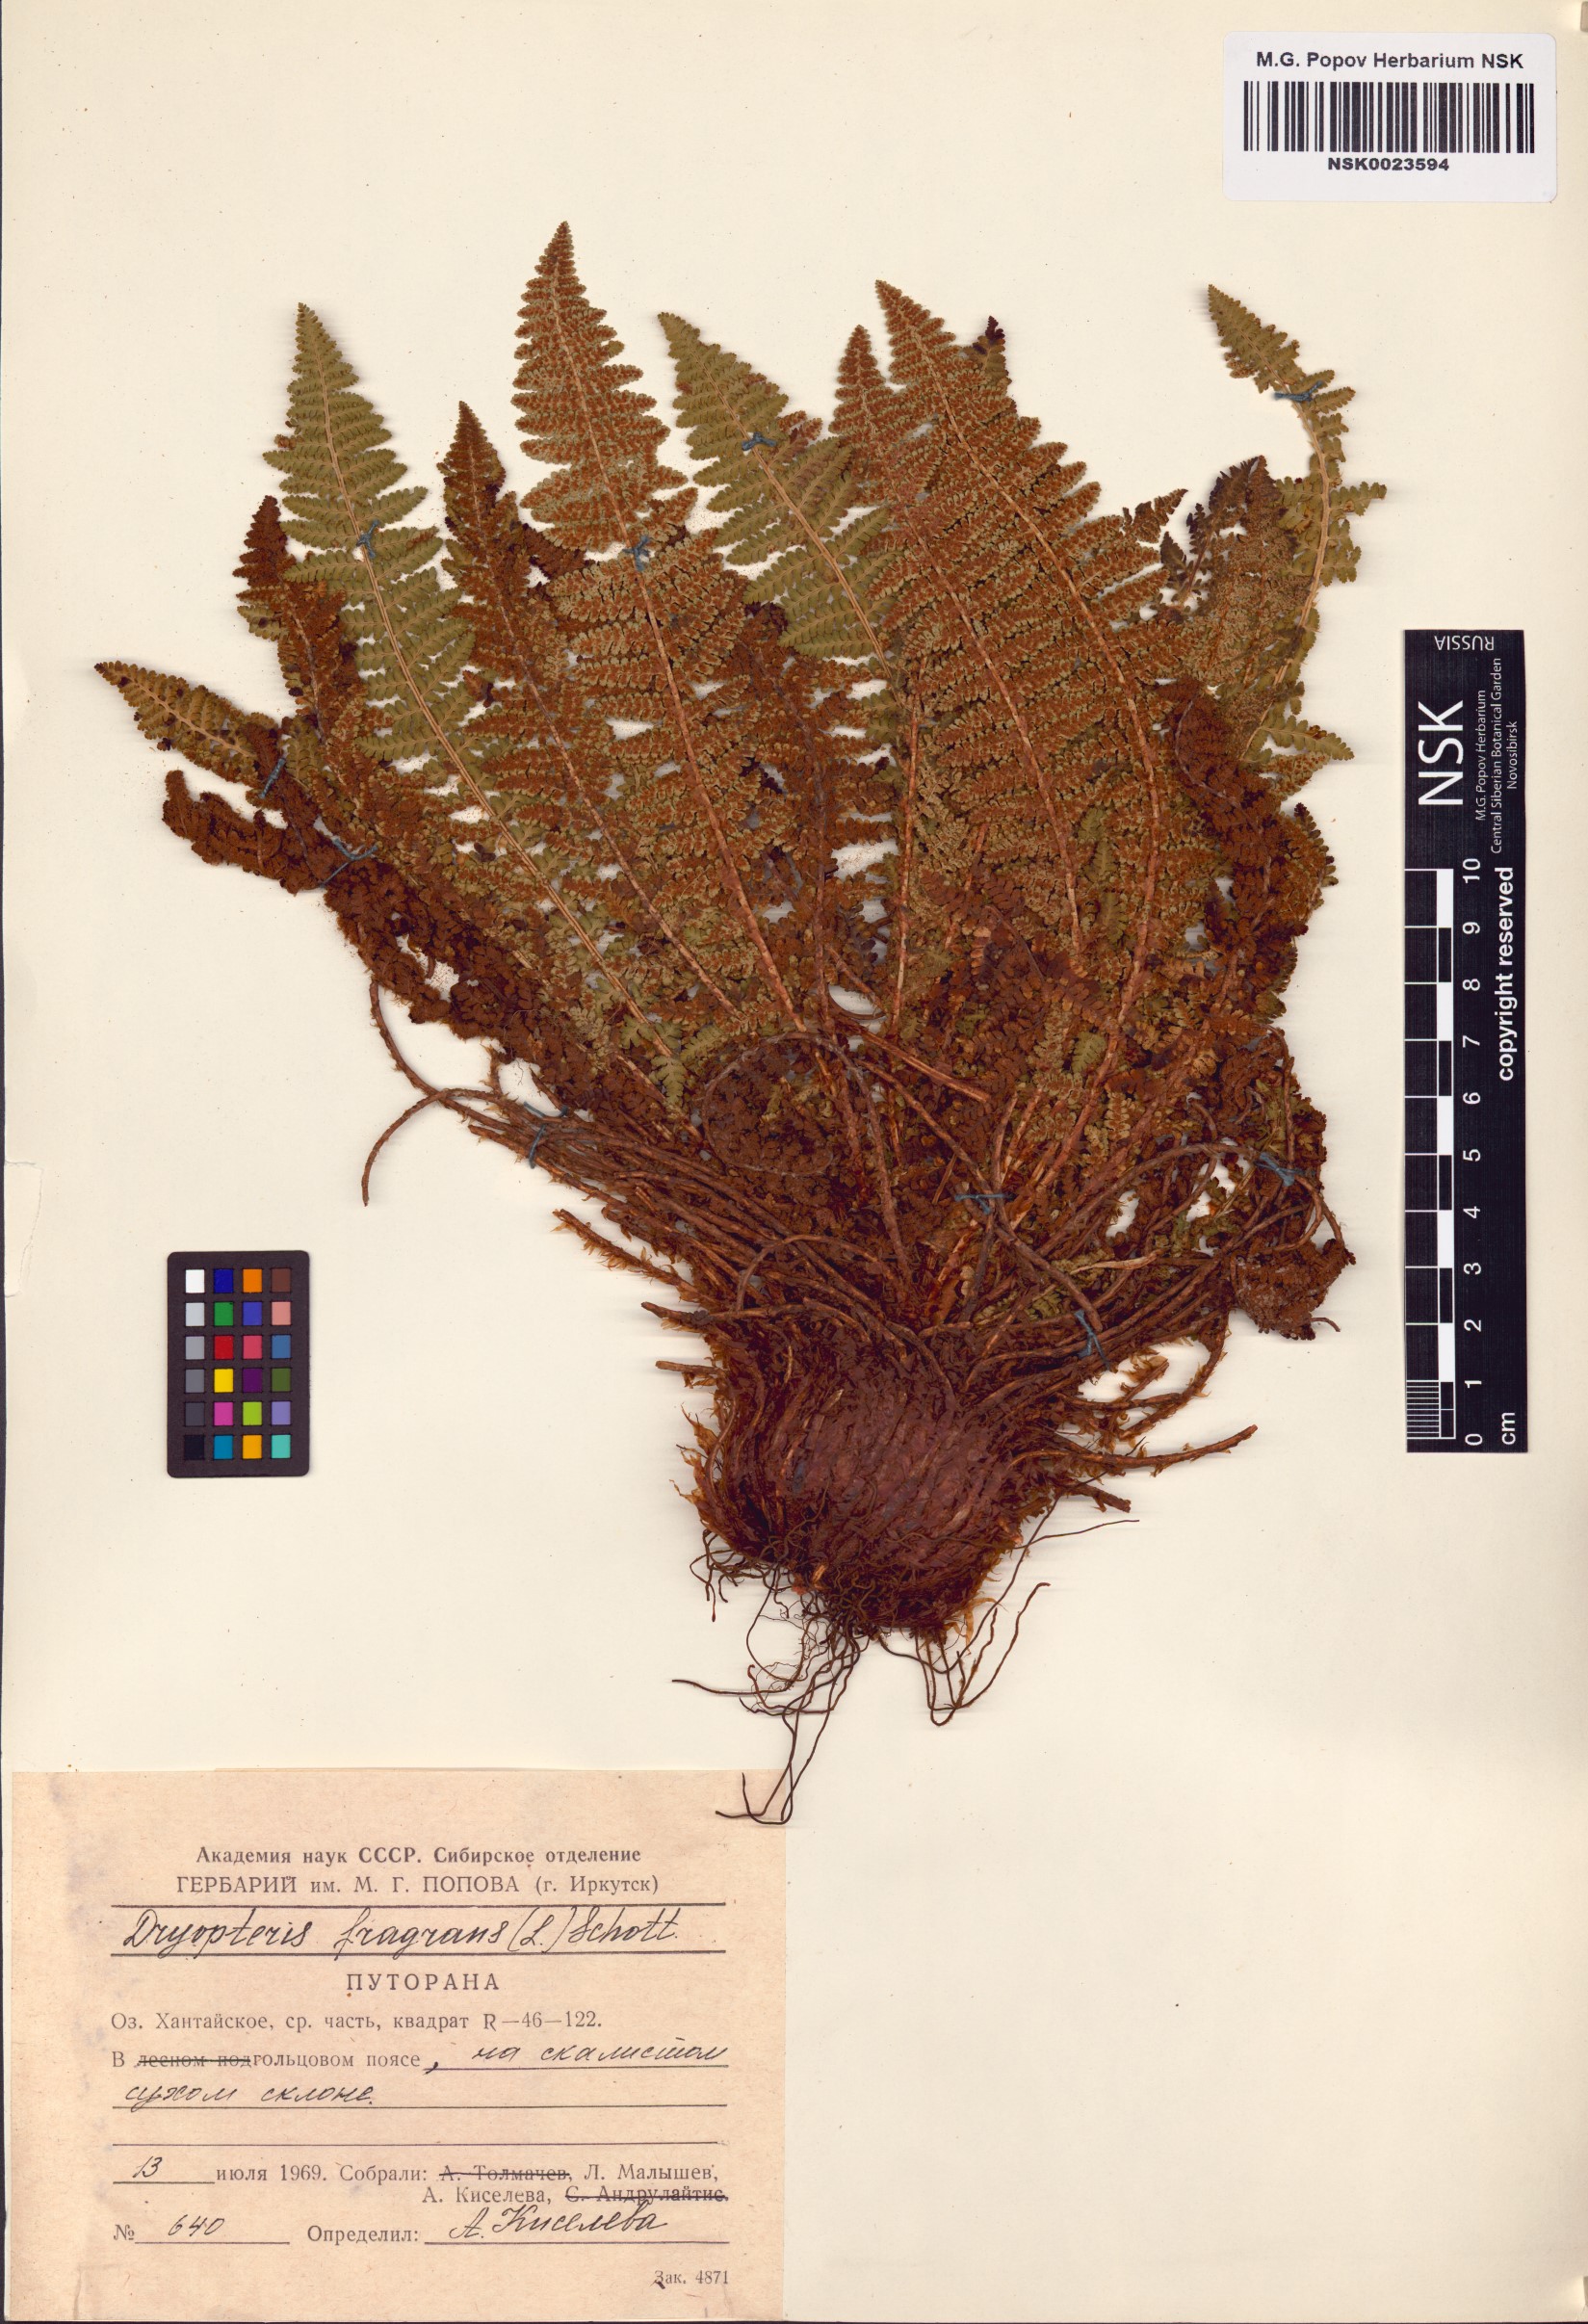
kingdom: Plantae
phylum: Tracheophyta
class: Polypodiopsida
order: Polypodiales
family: Dryopteridaceae
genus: Dryopteris
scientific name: Dryopteris fragrans
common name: Fragrant wood fern
